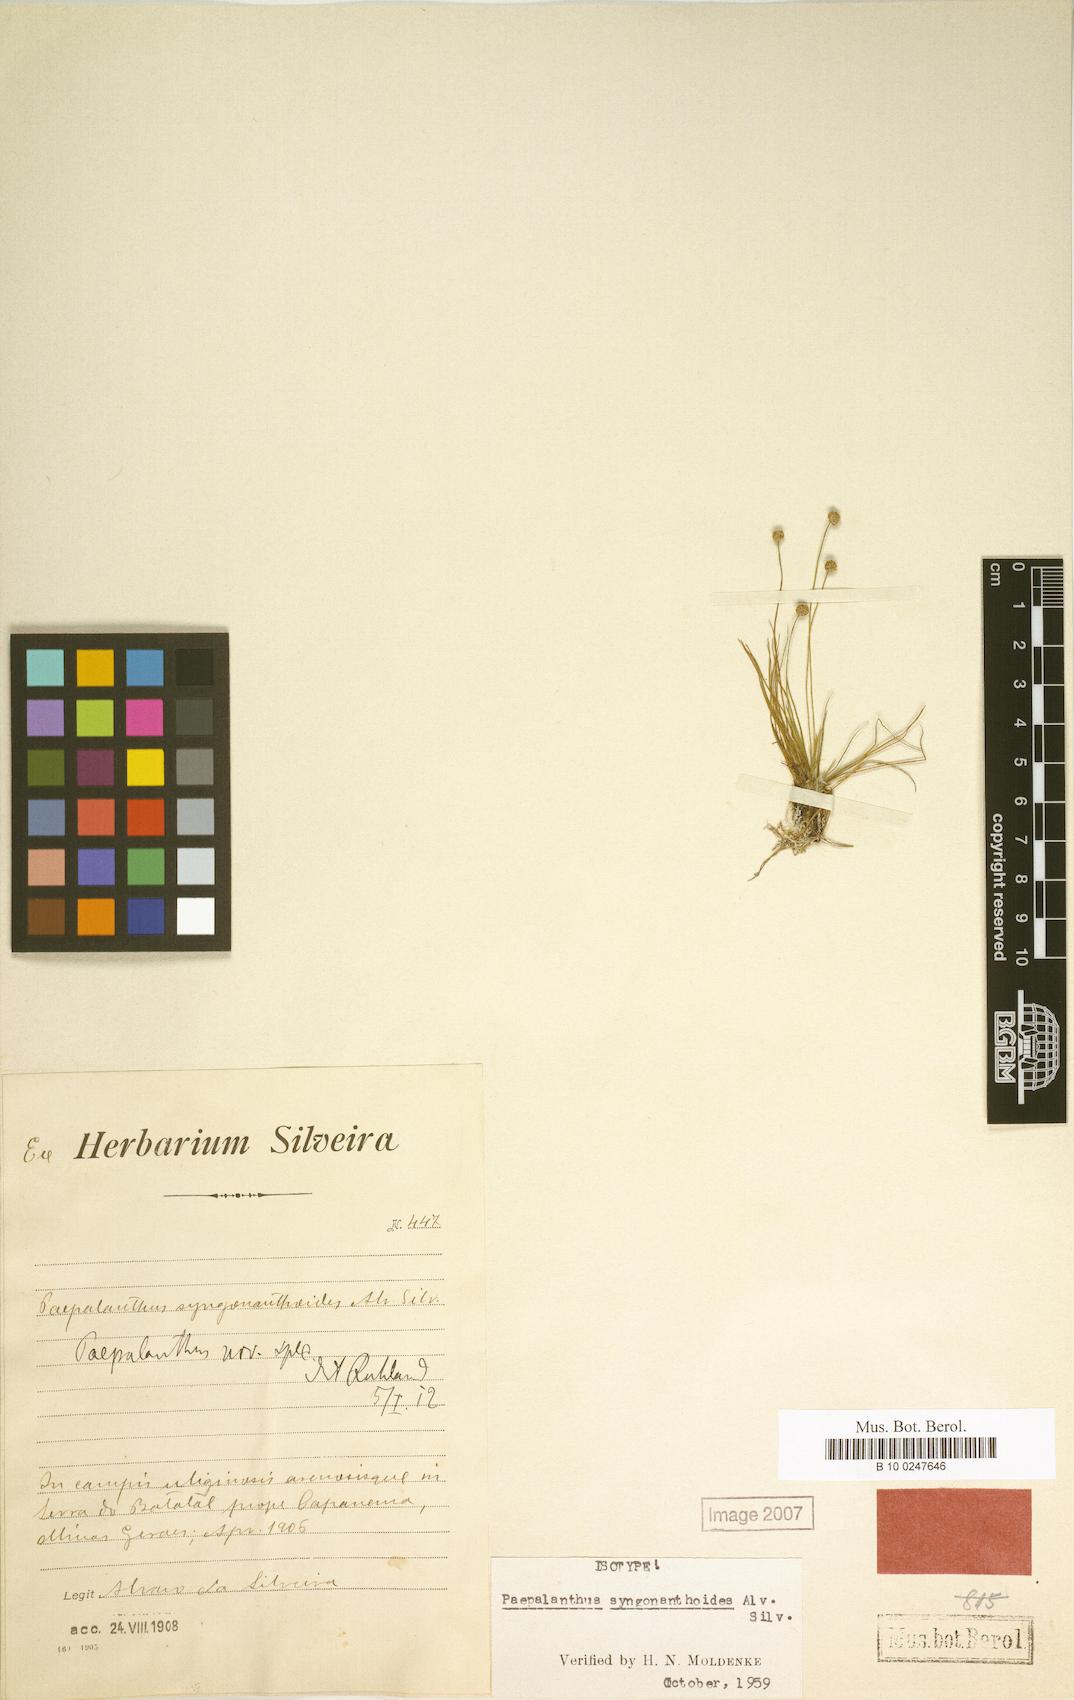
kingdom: Plantae
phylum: Tracheophyta
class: Liliopsida
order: Poales
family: Eriocaulaceae
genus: Syngonanthus
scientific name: Syngonanthus syngonanthoides
